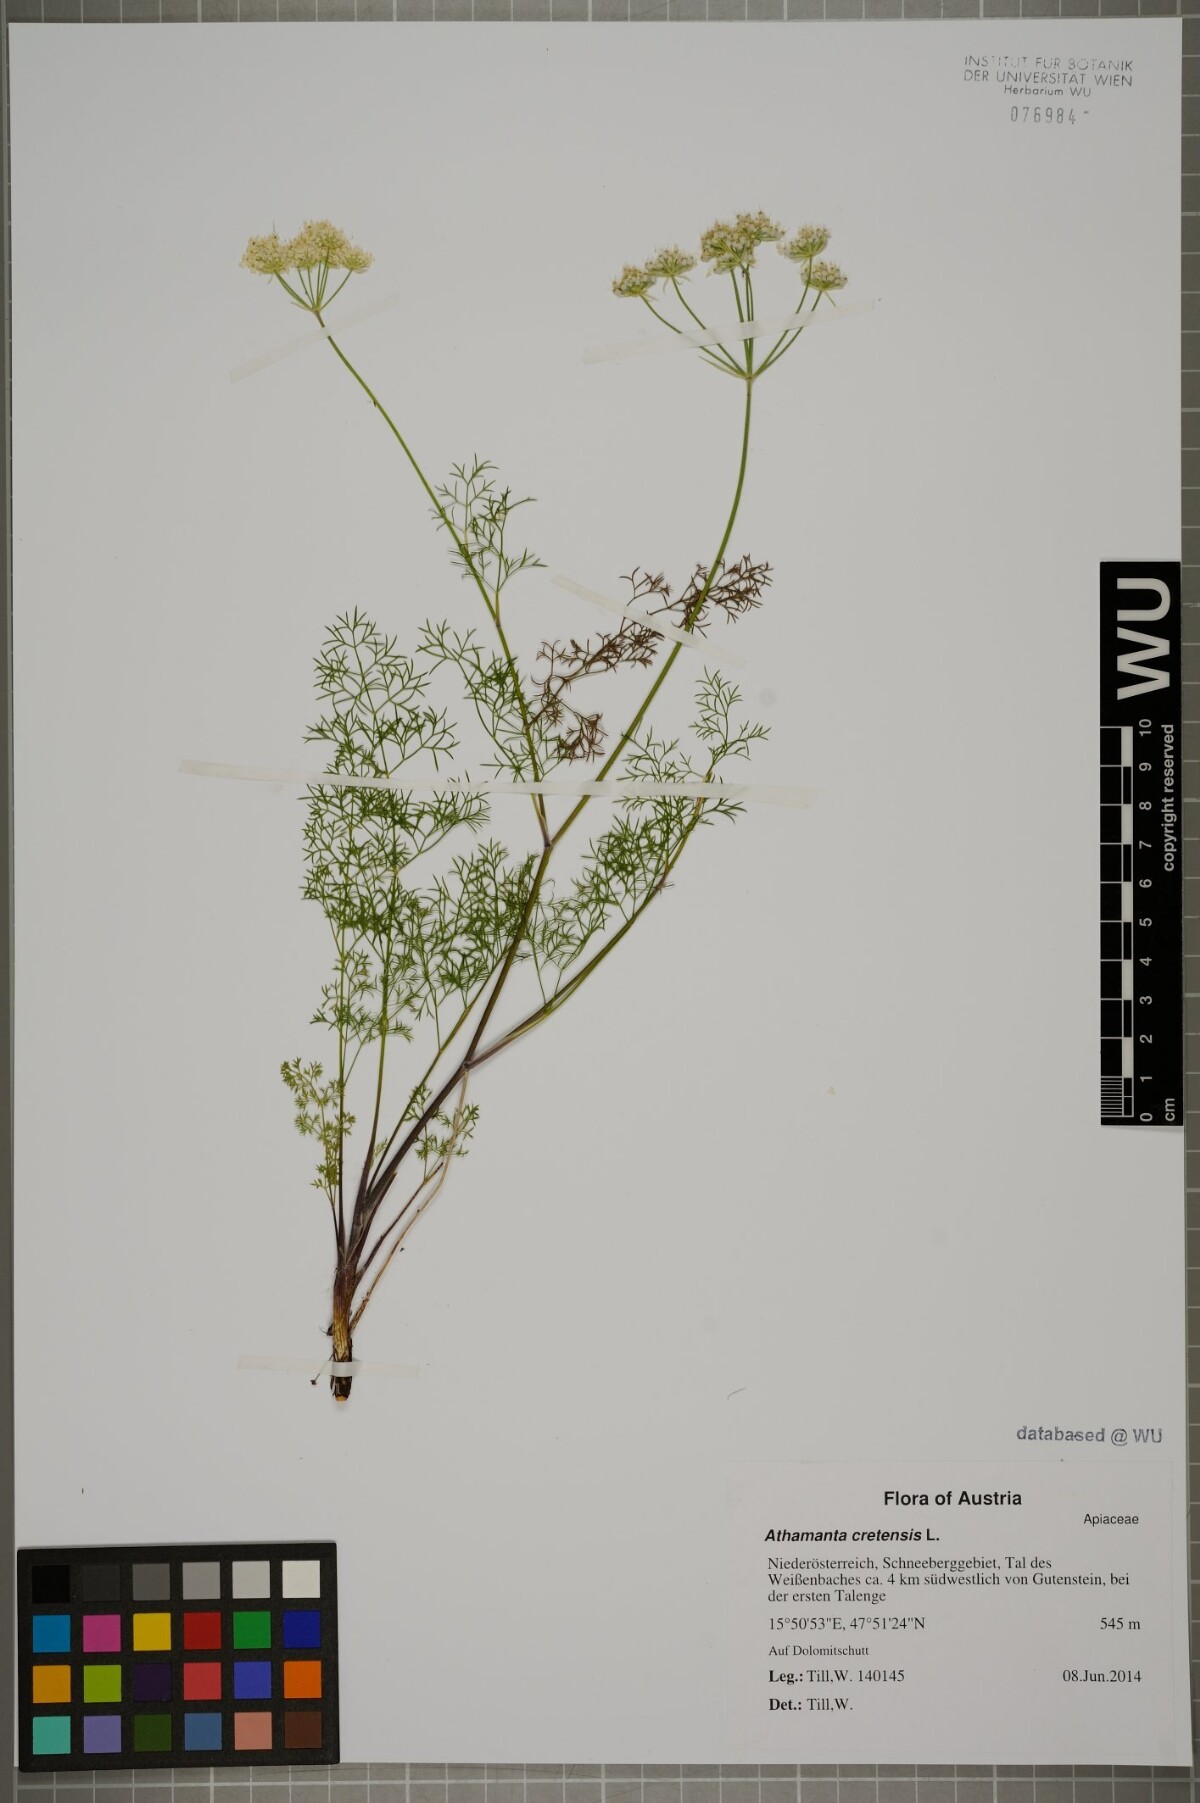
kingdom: Plantae
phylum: Tracheophyta
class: Magnoliopsida
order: Apiales
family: Apiaceae
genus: Athamanta
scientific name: Athamanta cretensis
